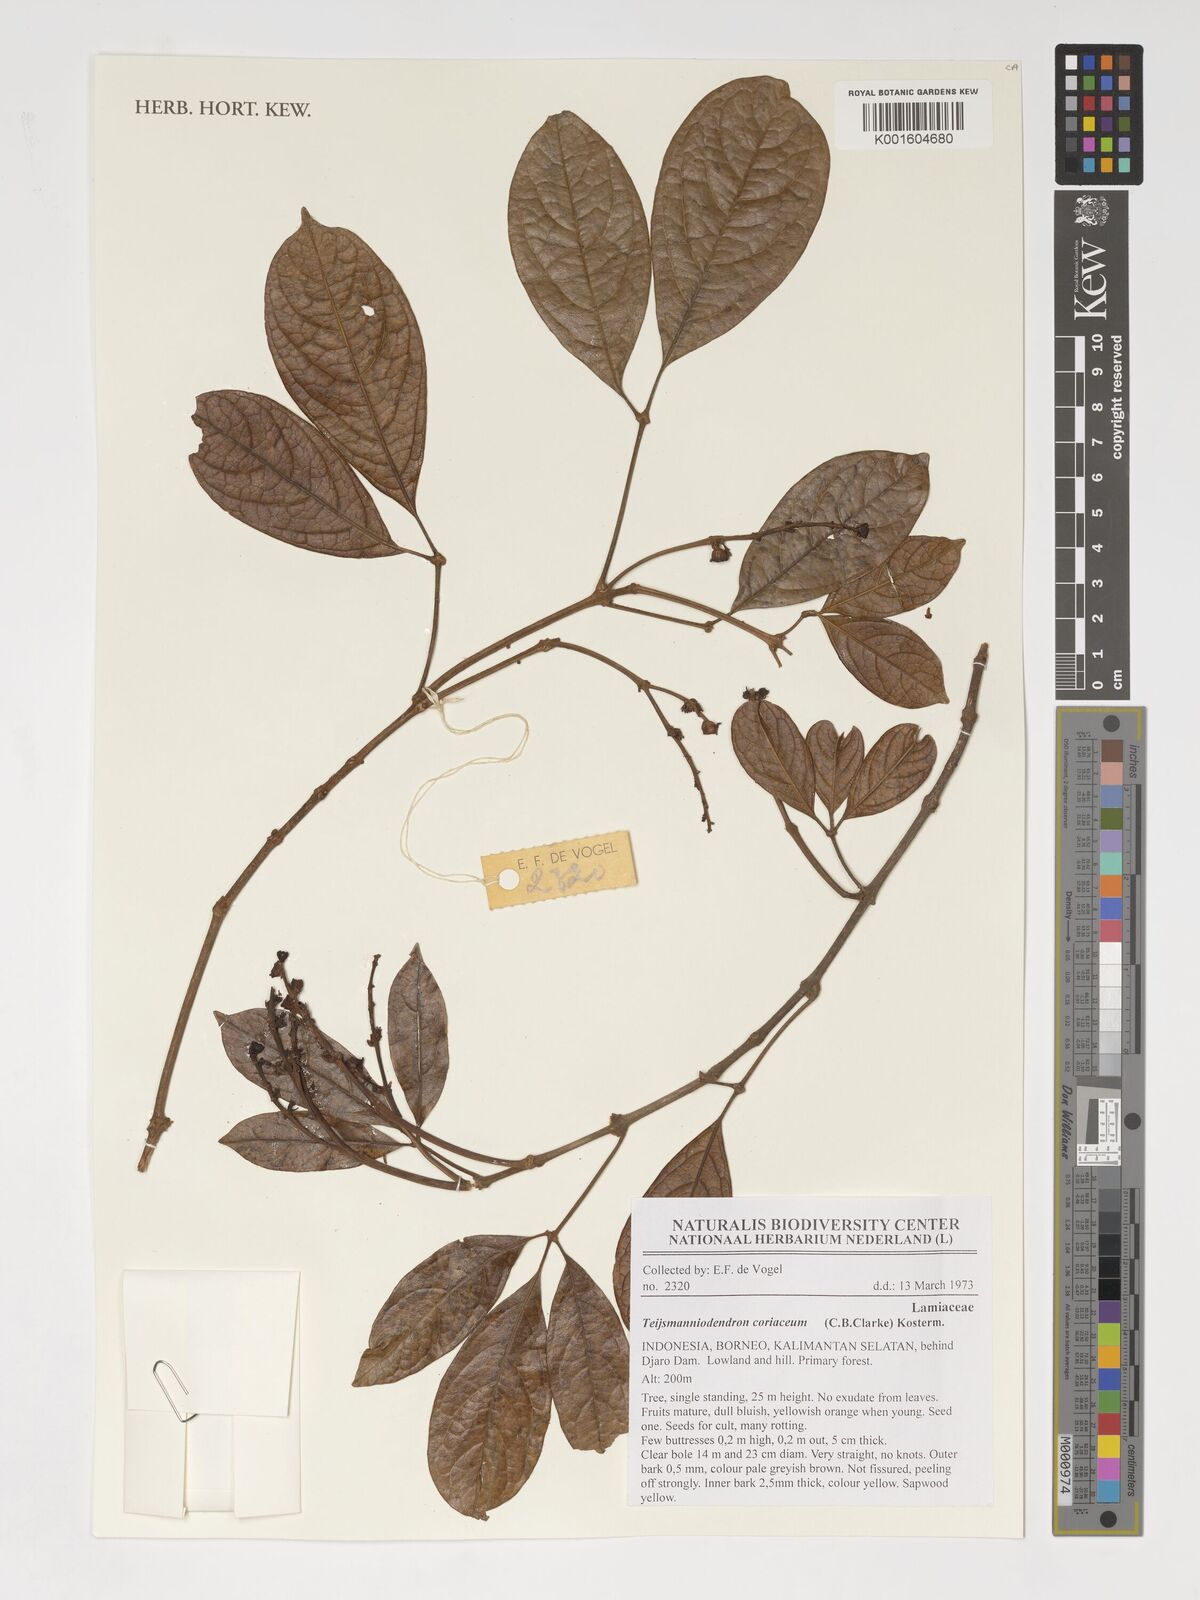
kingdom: Plantae
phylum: Tracheophyta
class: Magnoliopsida
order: Lamiales
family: Lamiaceae
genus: Teijsmanniodendron
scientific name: Teijsmanniodendron coriaceum
